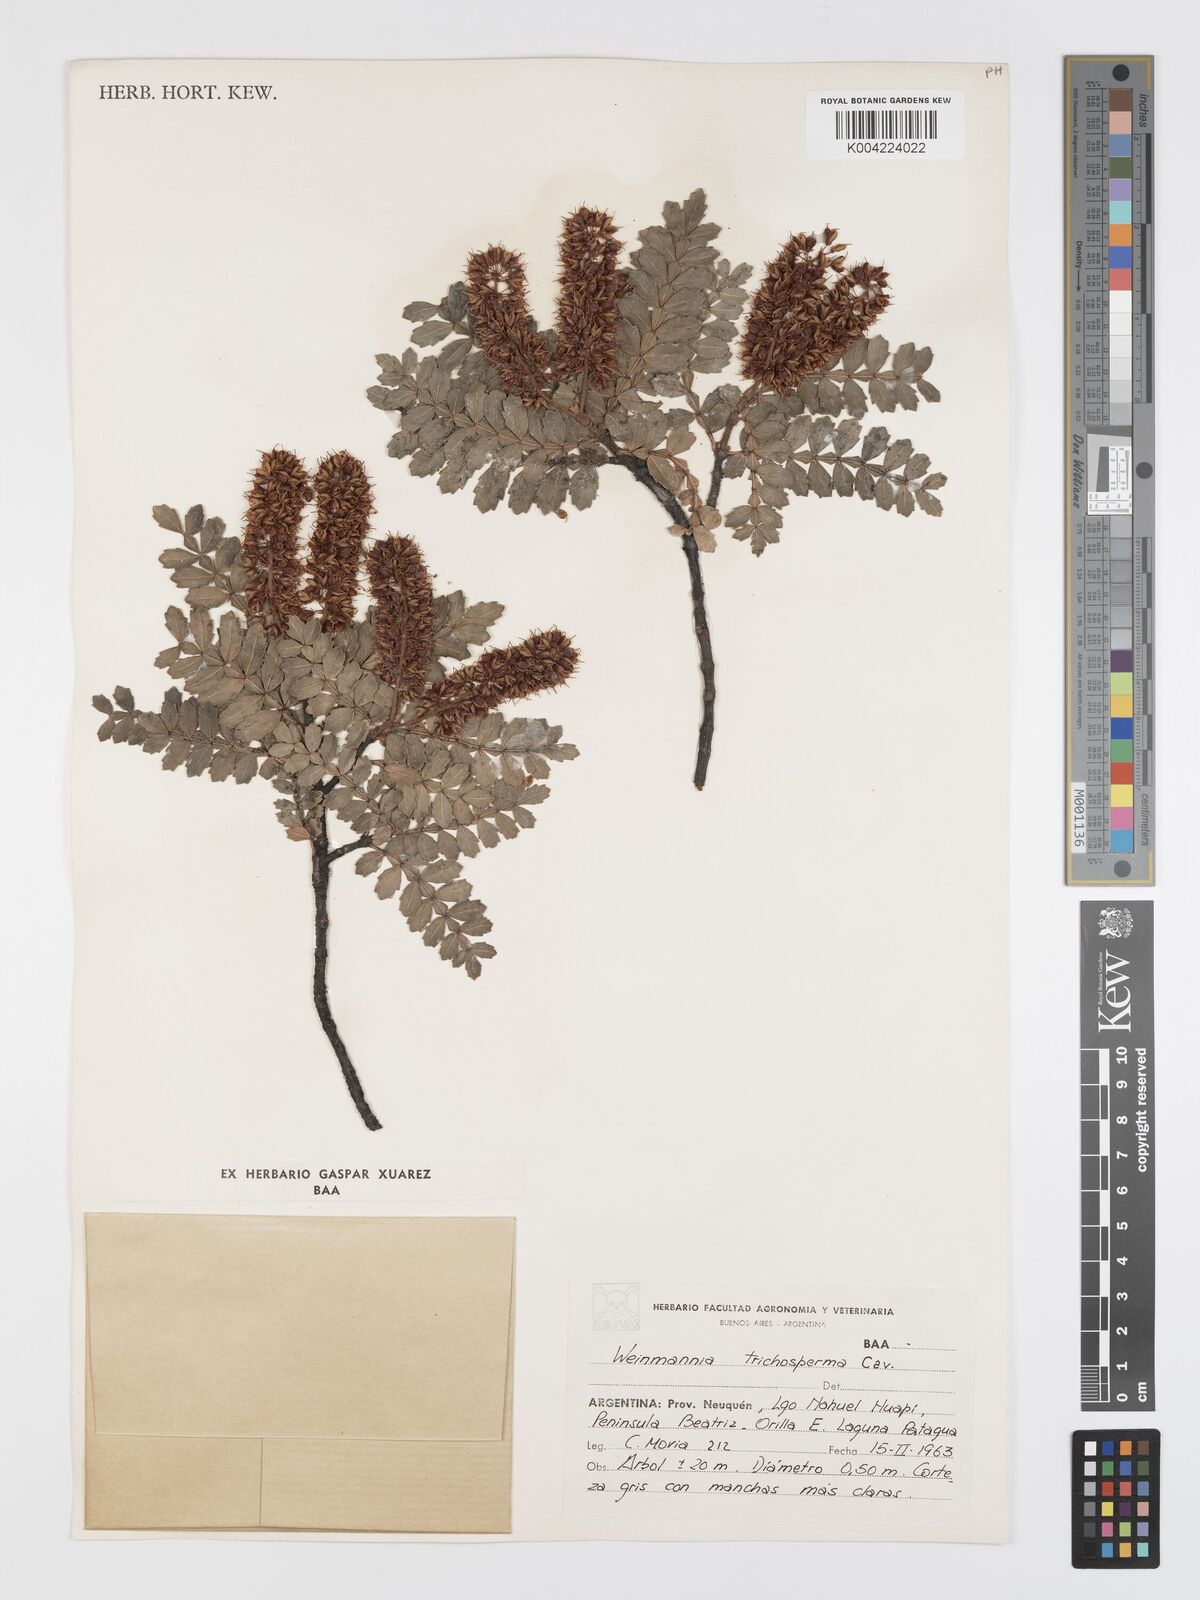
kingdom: Plantae
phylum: Tracheophyta
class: Magnoliopsida
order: Oxalidales
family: Cunoniaceae
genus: Weinmannia
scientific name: Weinmannia trichosperma
